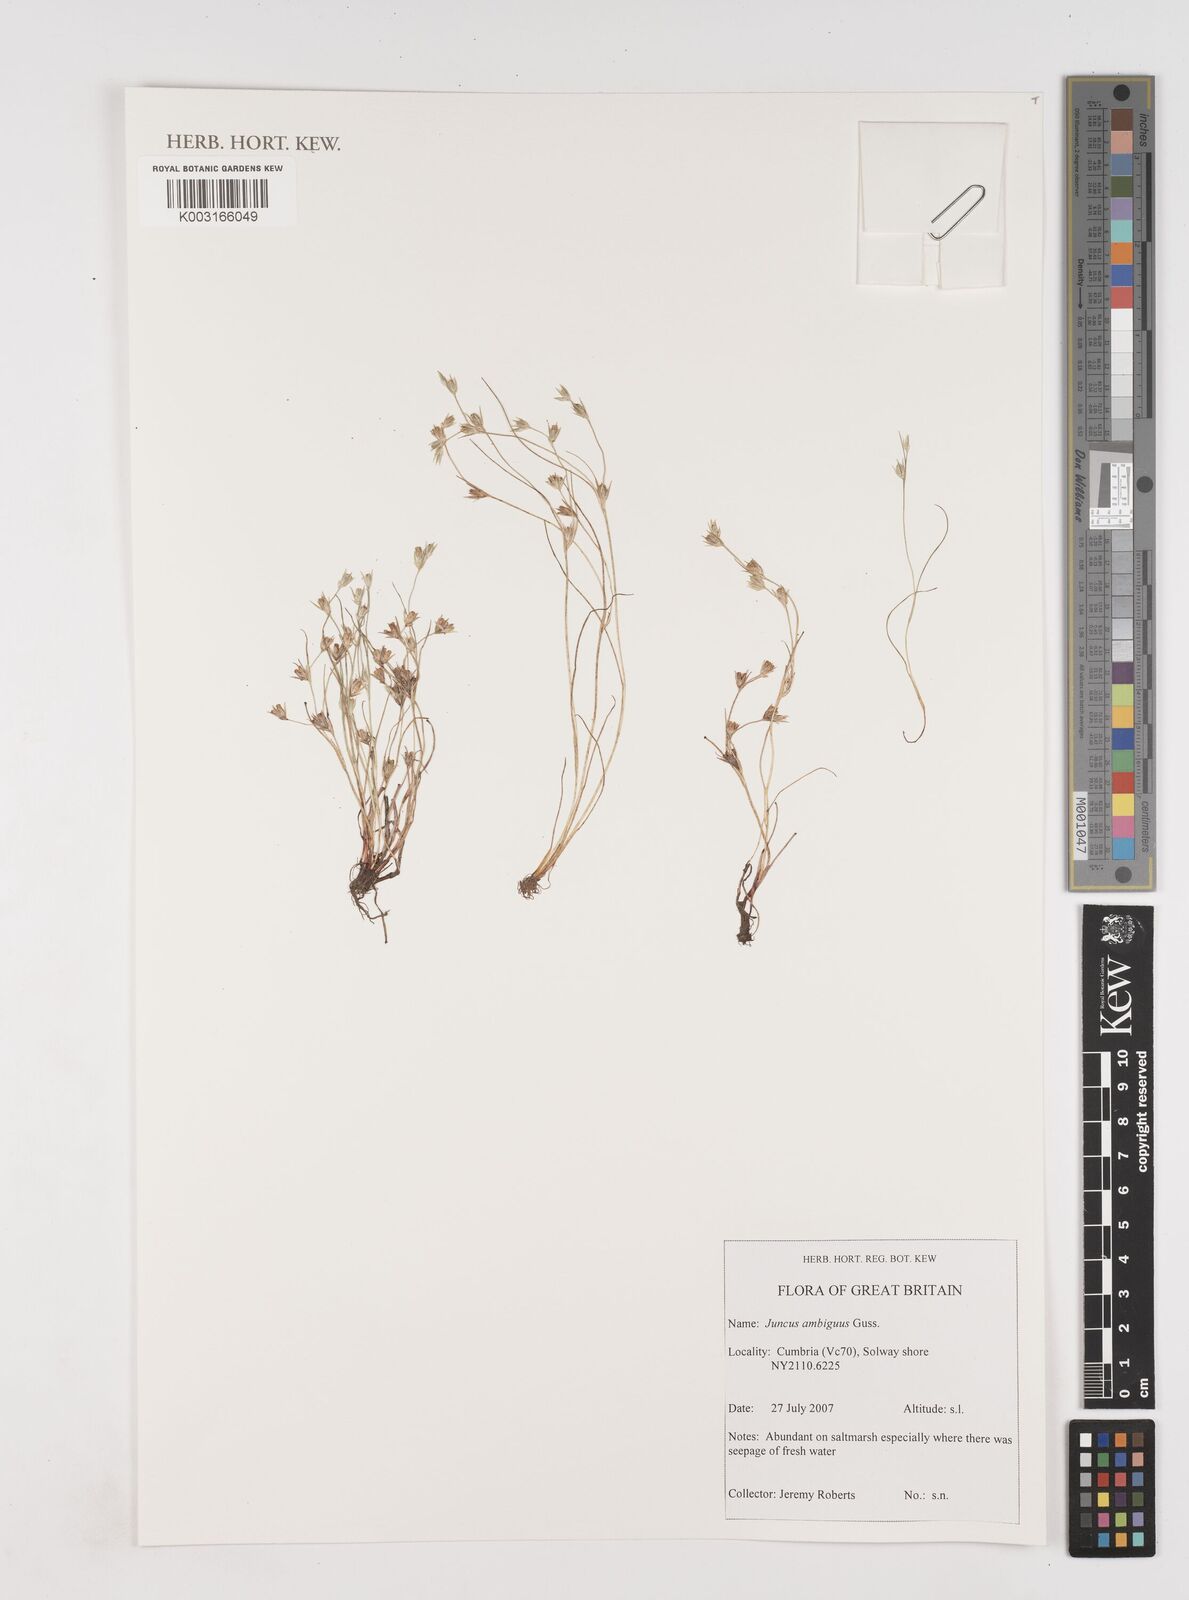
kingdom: Plantae
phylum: Tracheophyta
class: Liliopsida
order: Poales
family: Juncaceae
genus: Juncus
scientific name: Juncus hybridus
